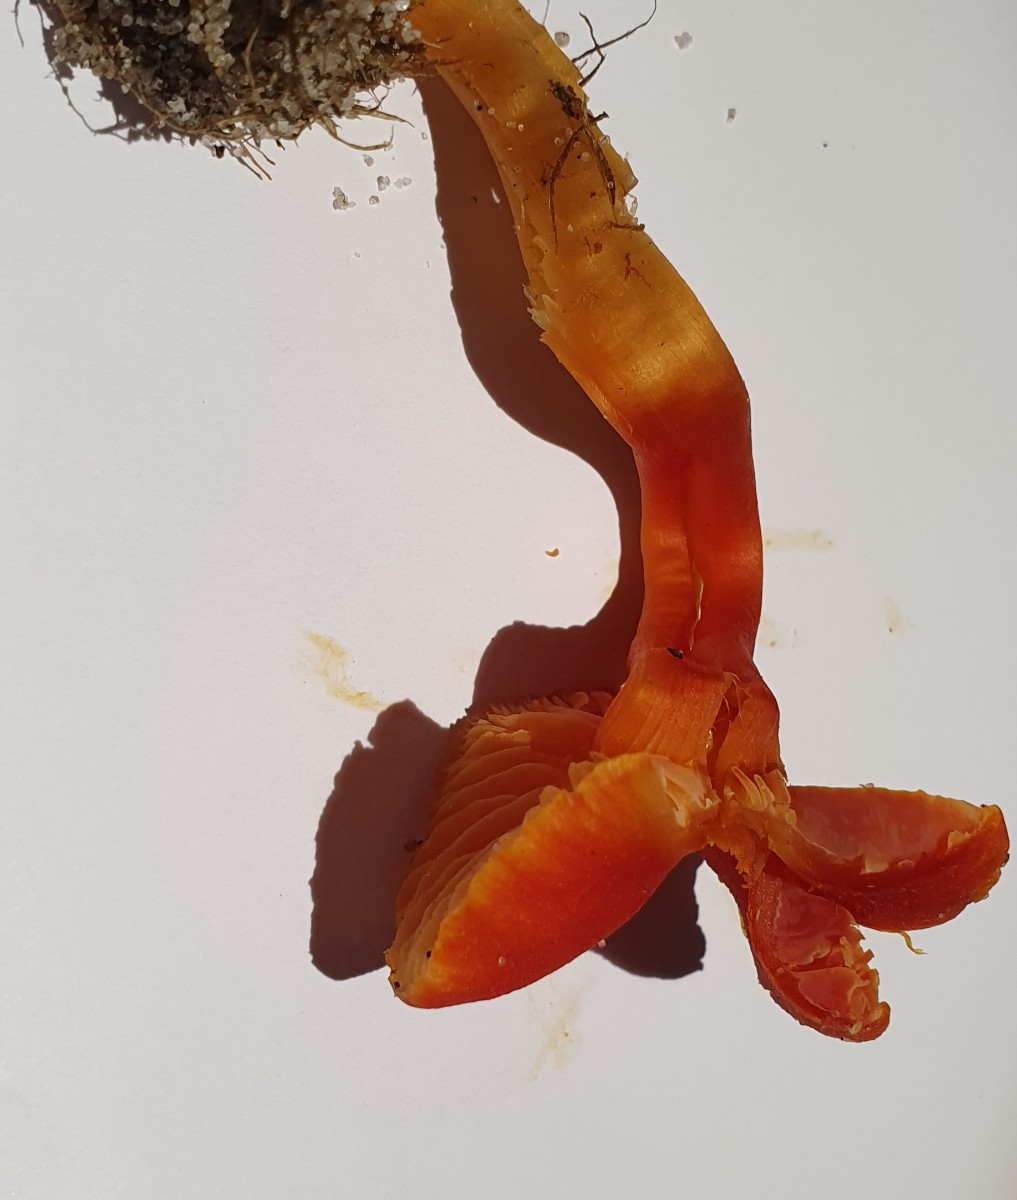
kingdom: Fungi
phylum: Basidiomycota
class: Agaricomycetes
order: Agaricales
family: Hygrophoraceae
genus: Hygrocybe
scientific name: Hygrocybe miniata
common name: mønje-vokshat
